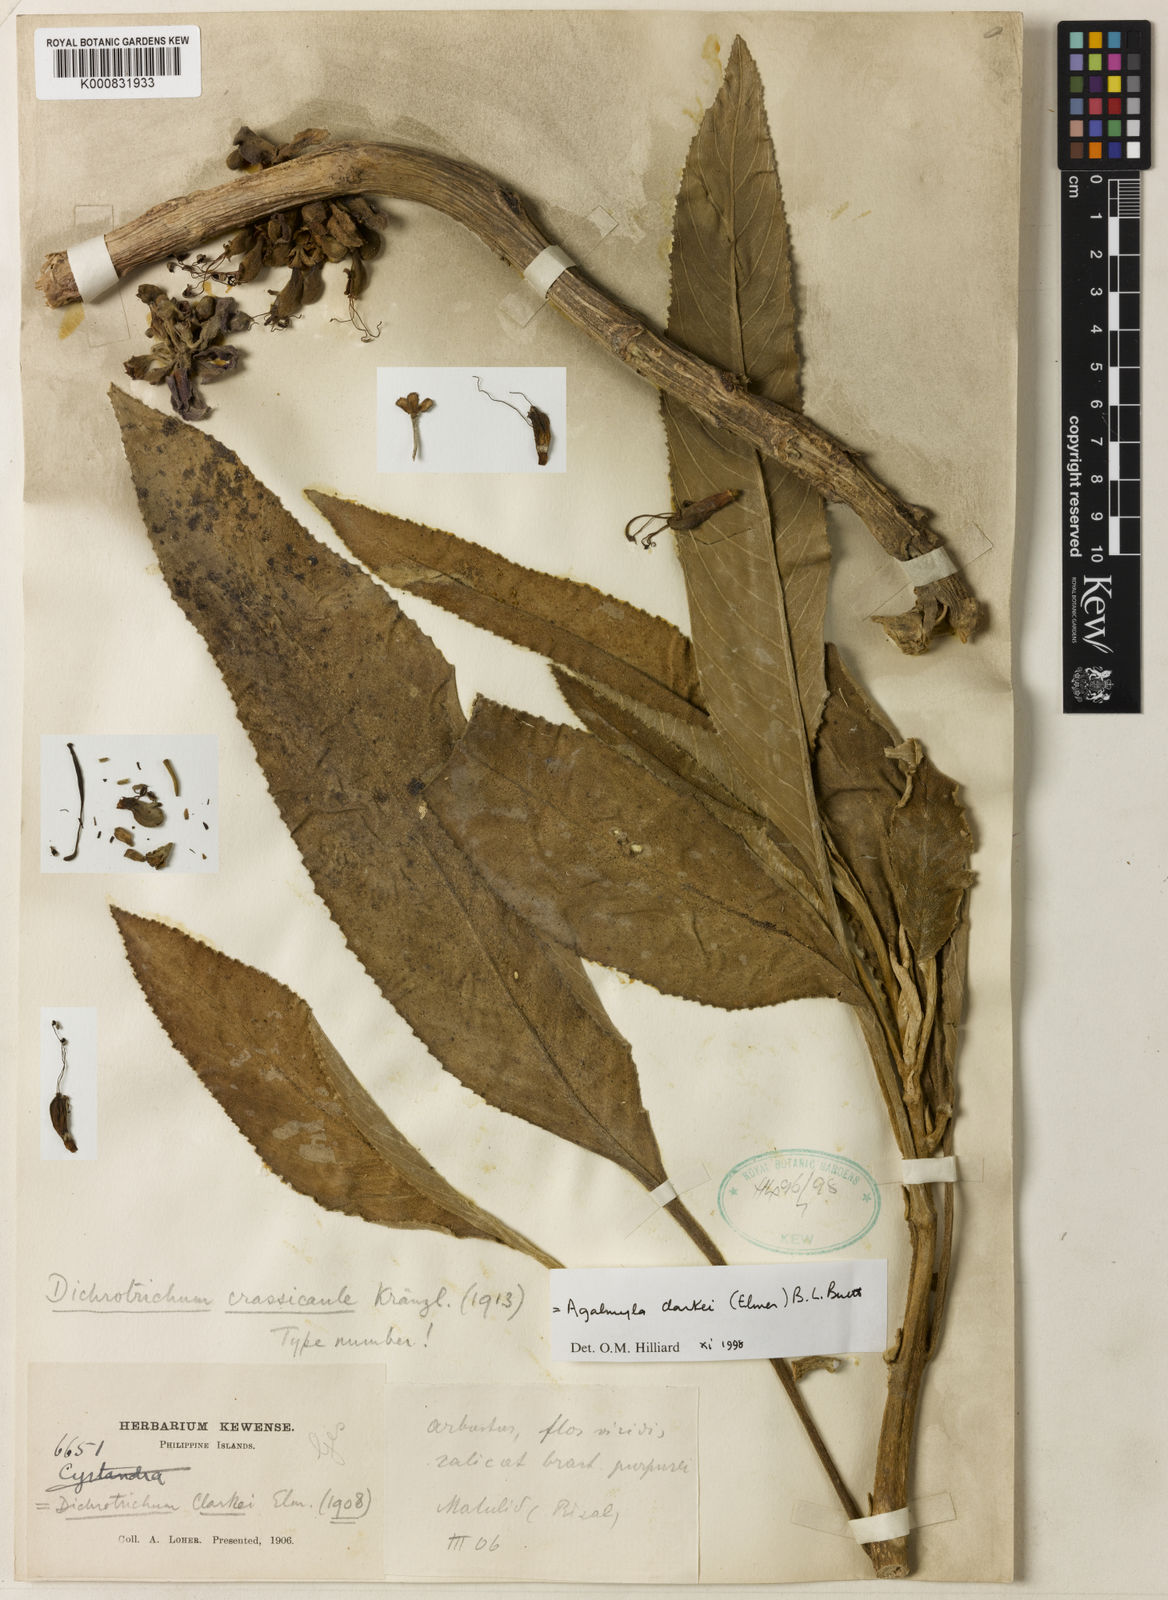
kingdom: Plantae
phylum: Tracheophyta
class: Magnoliopsida
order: Lamiales
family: Gesneriaceae
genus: Agalmyla
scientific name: Agalmyla clarkei
